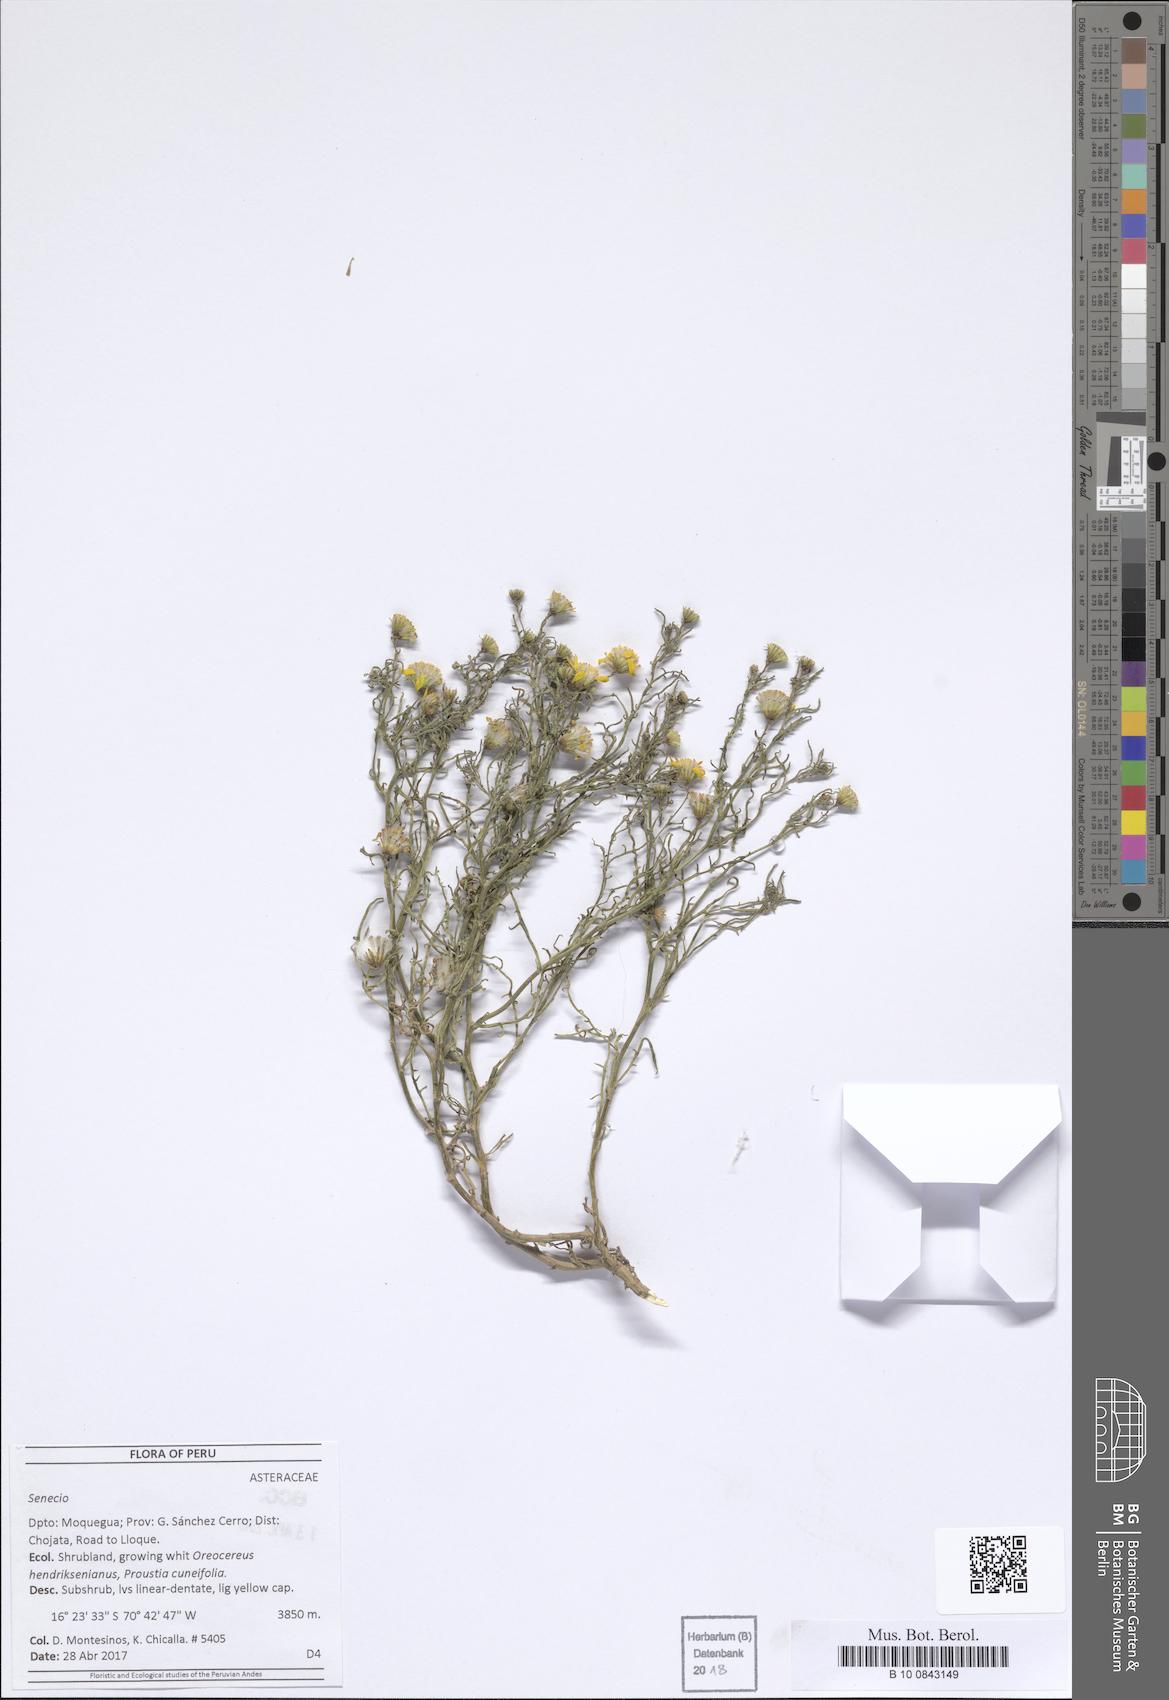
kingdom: Plantae
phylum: Tracheophyta
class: Magnoliopsida
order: Asterales
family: Asteraceae
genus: Senecio
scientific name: Senecio
